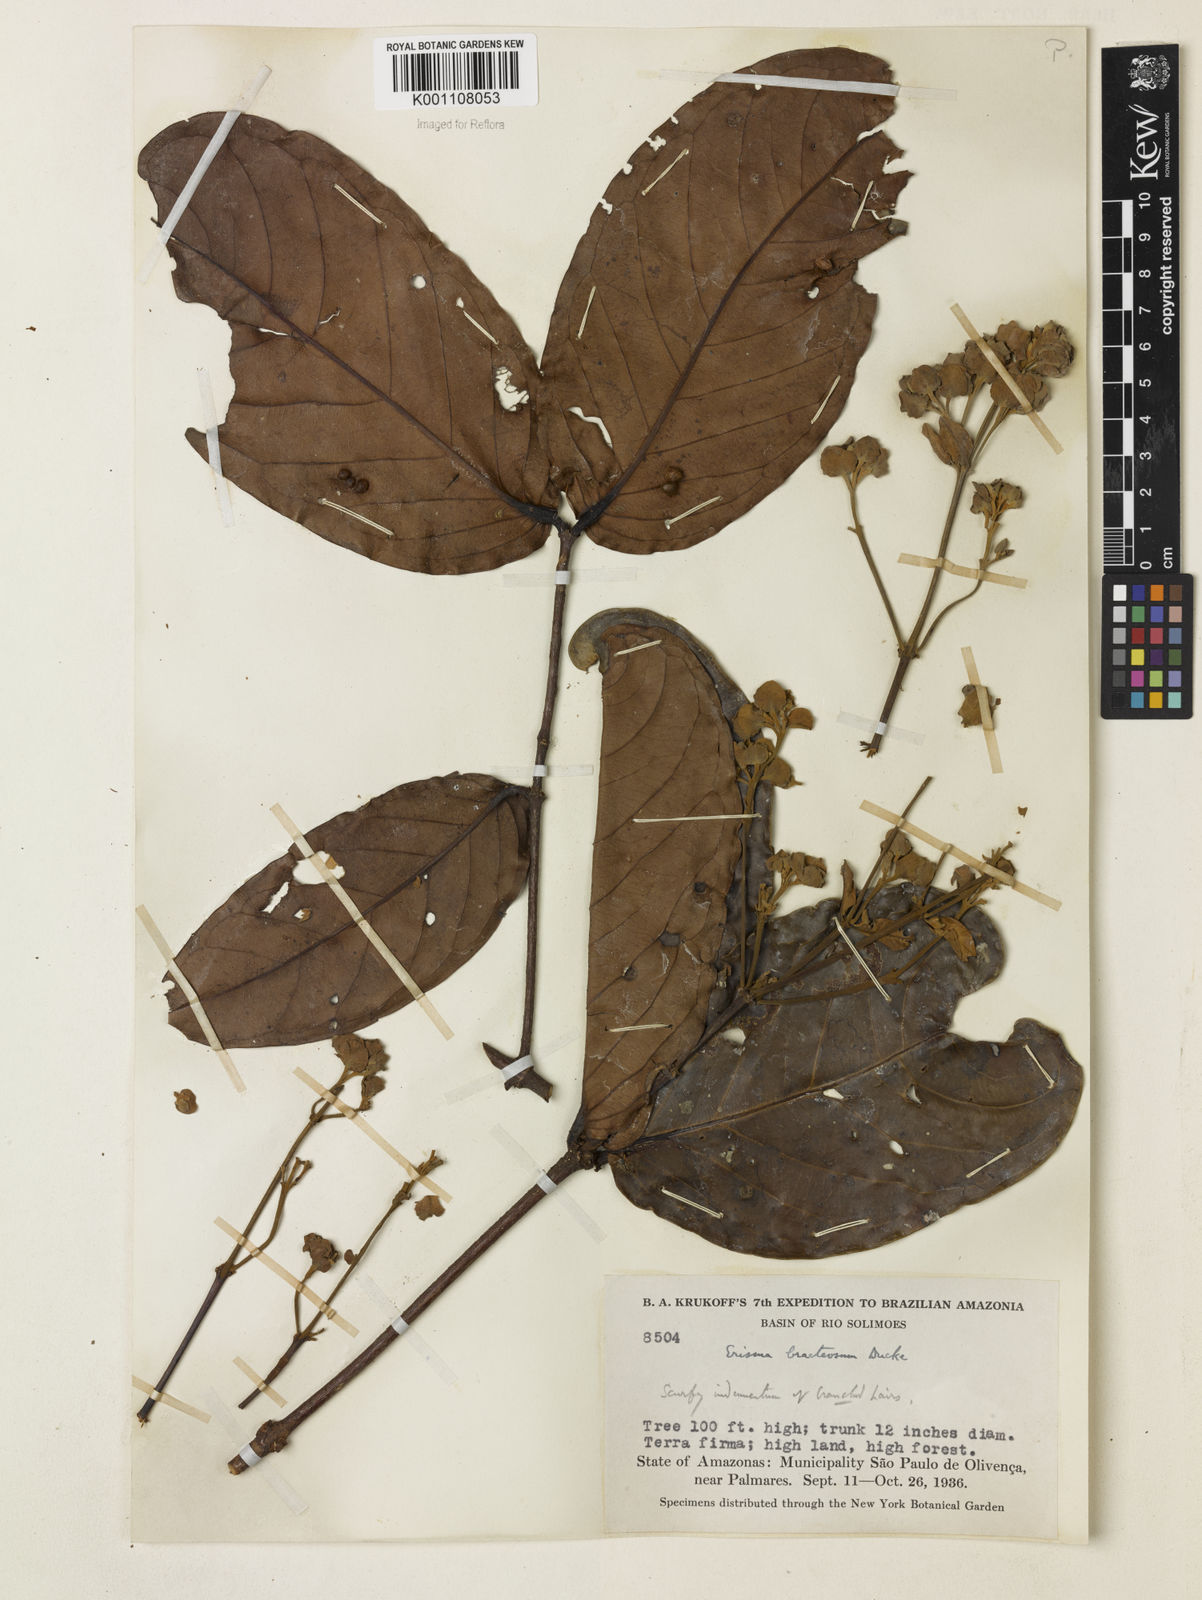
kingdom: Plantae
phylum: Tracheophyta
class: Magnoliopsida
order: Myrtales
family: Vochysiaceae
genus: Erisma
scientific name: Erisma bracteosum
